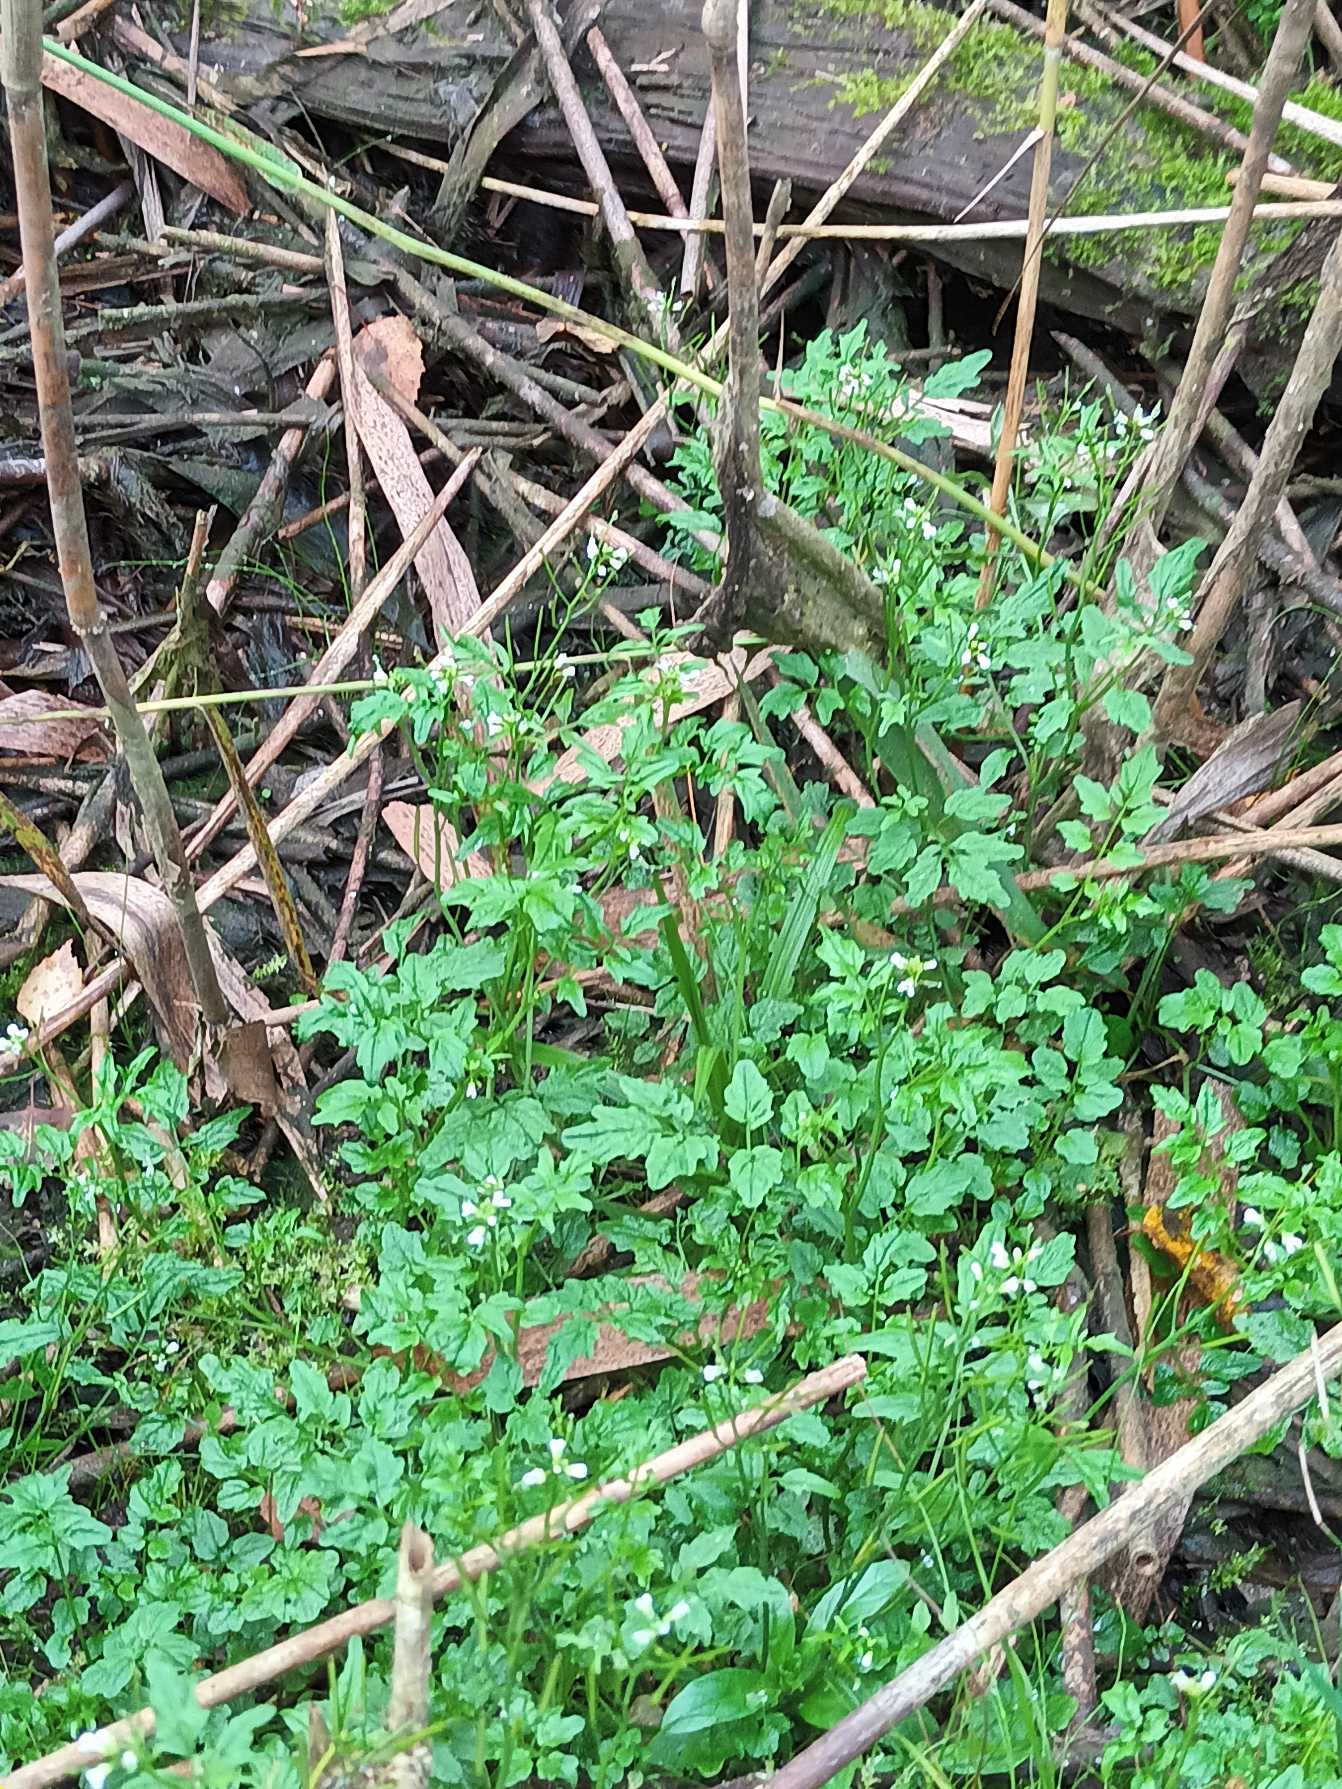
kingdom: Plantae
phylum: Tracheophyta
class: Magnoliopsida
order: Brassicales
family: Brassicaceae
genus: Cardamine
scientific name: Cardamine flexuosa
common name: Skov-springklap
